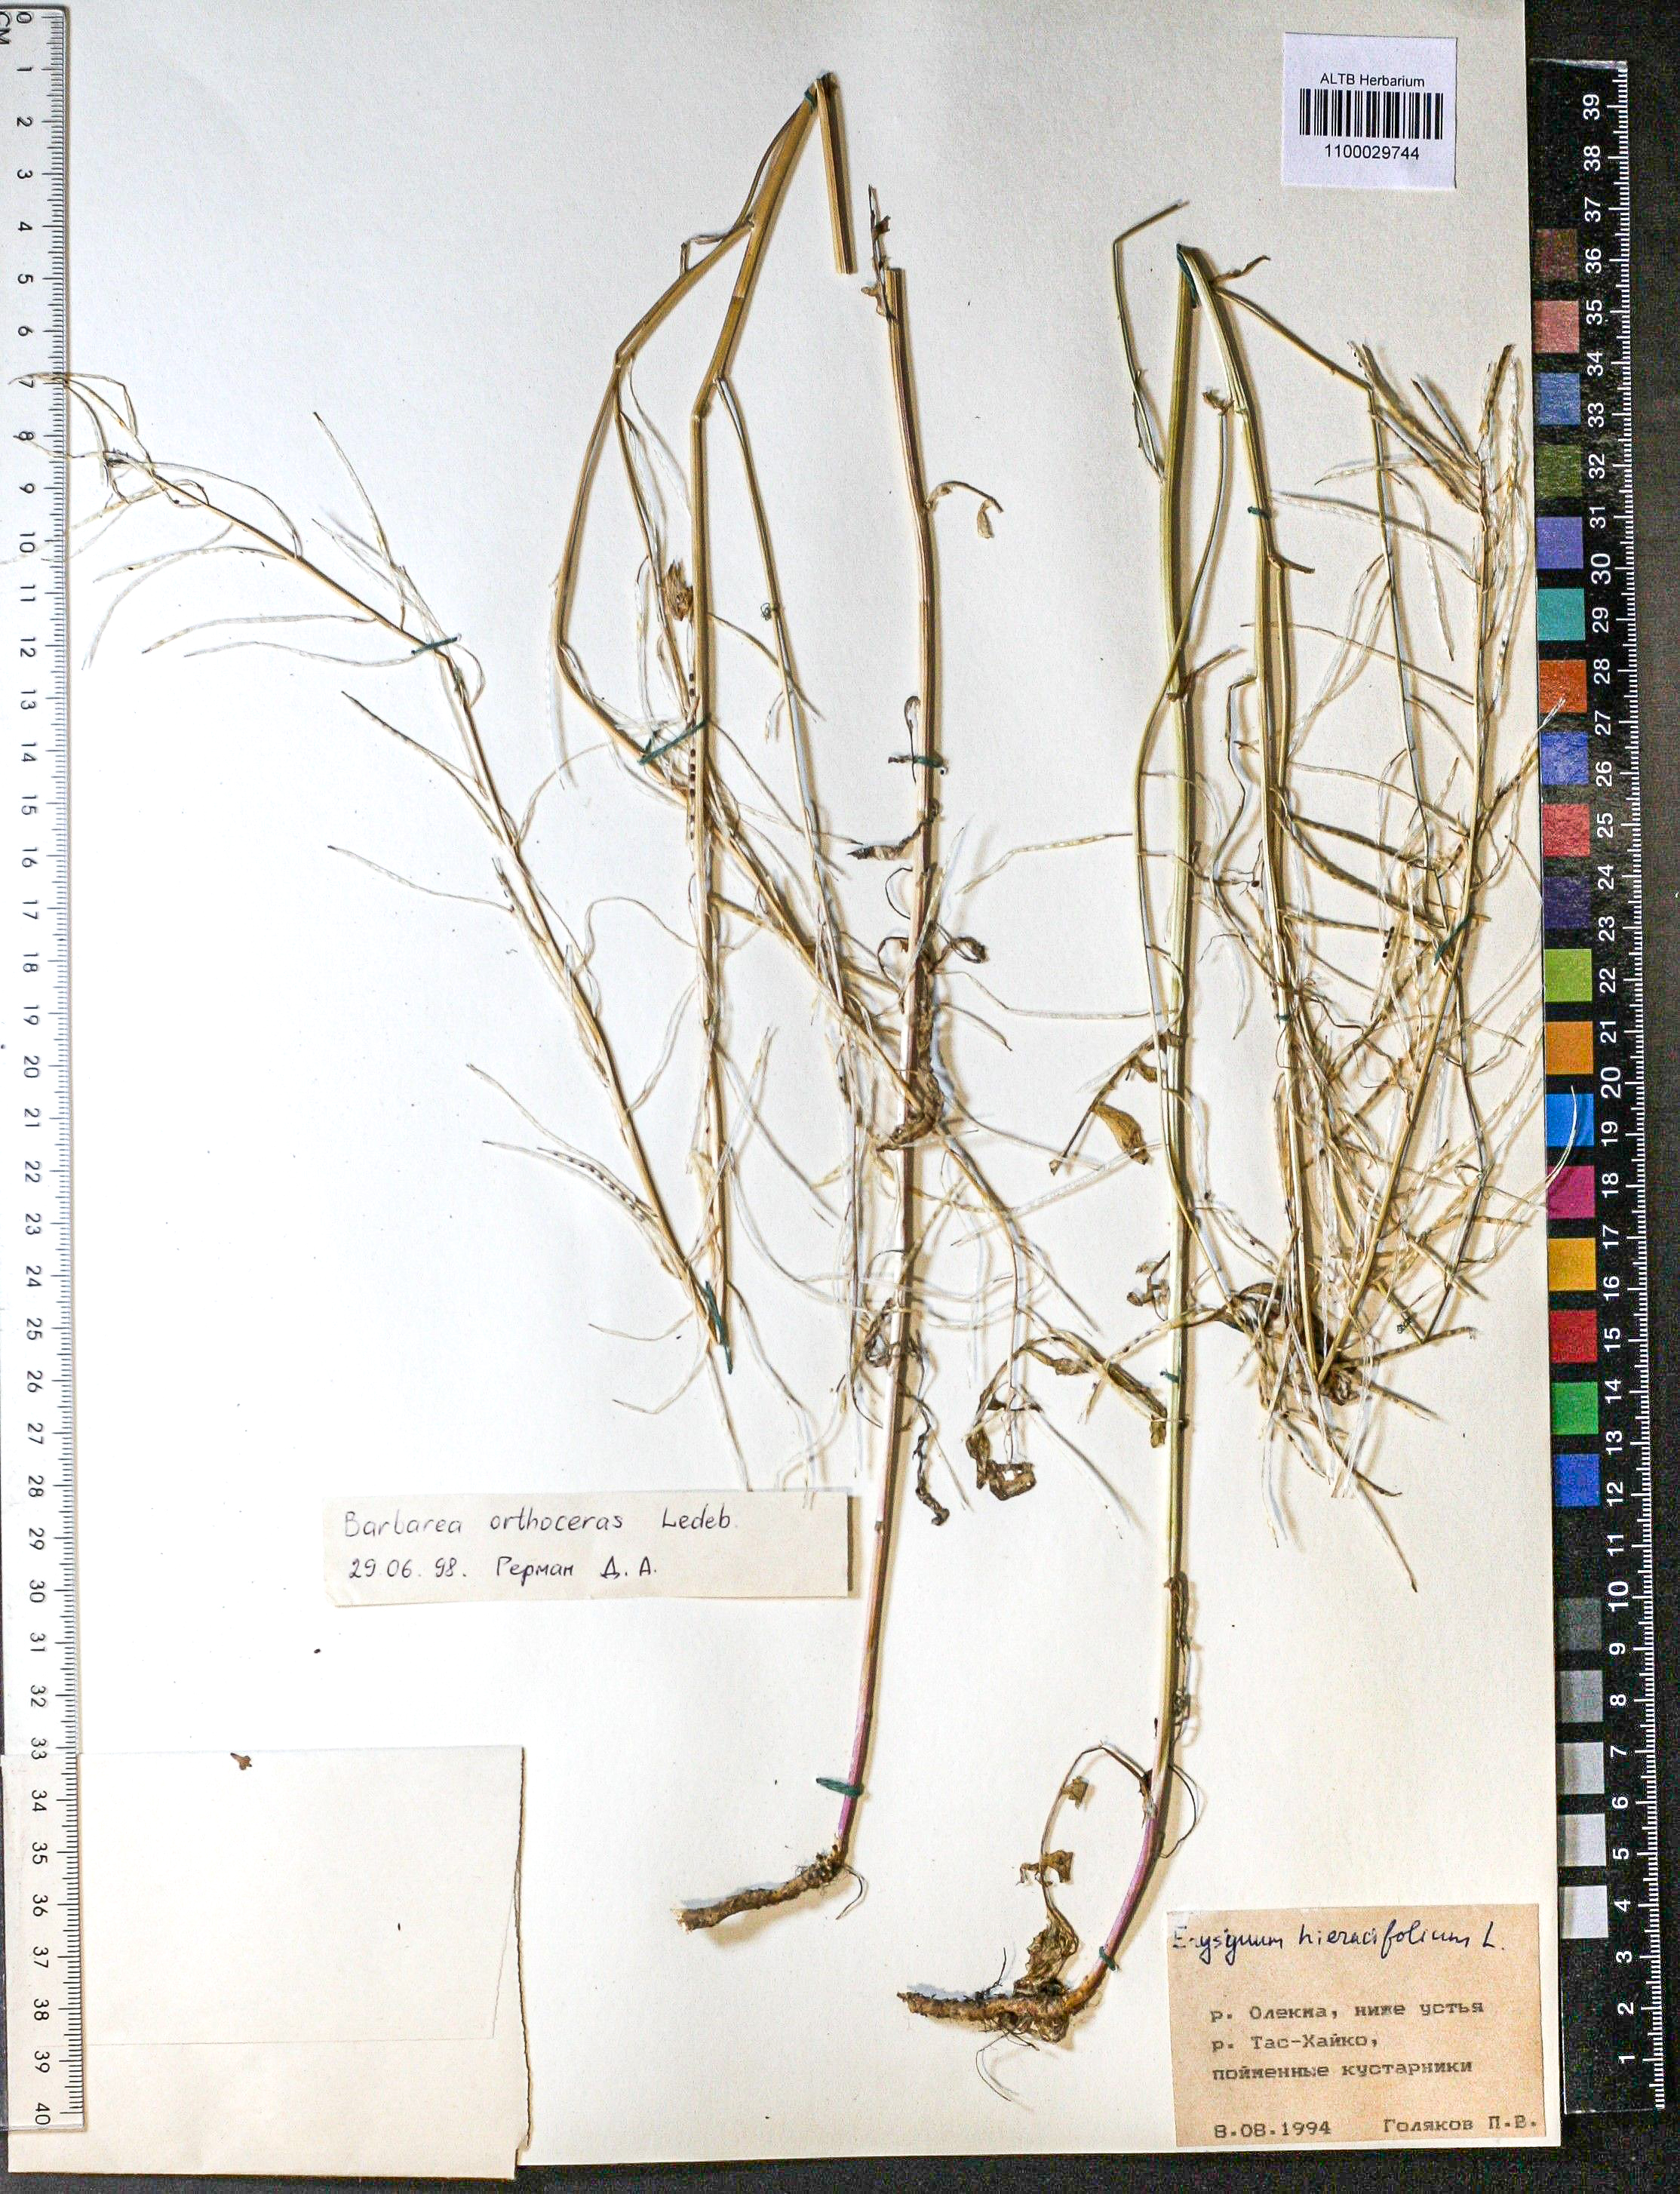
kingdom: Plantae
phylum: Tracheophyta
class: Magnoliopsida
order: Brassicales
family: Brassicaceae
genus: Barbarea
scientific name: Barbarea orthoceras
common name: American wintercress
